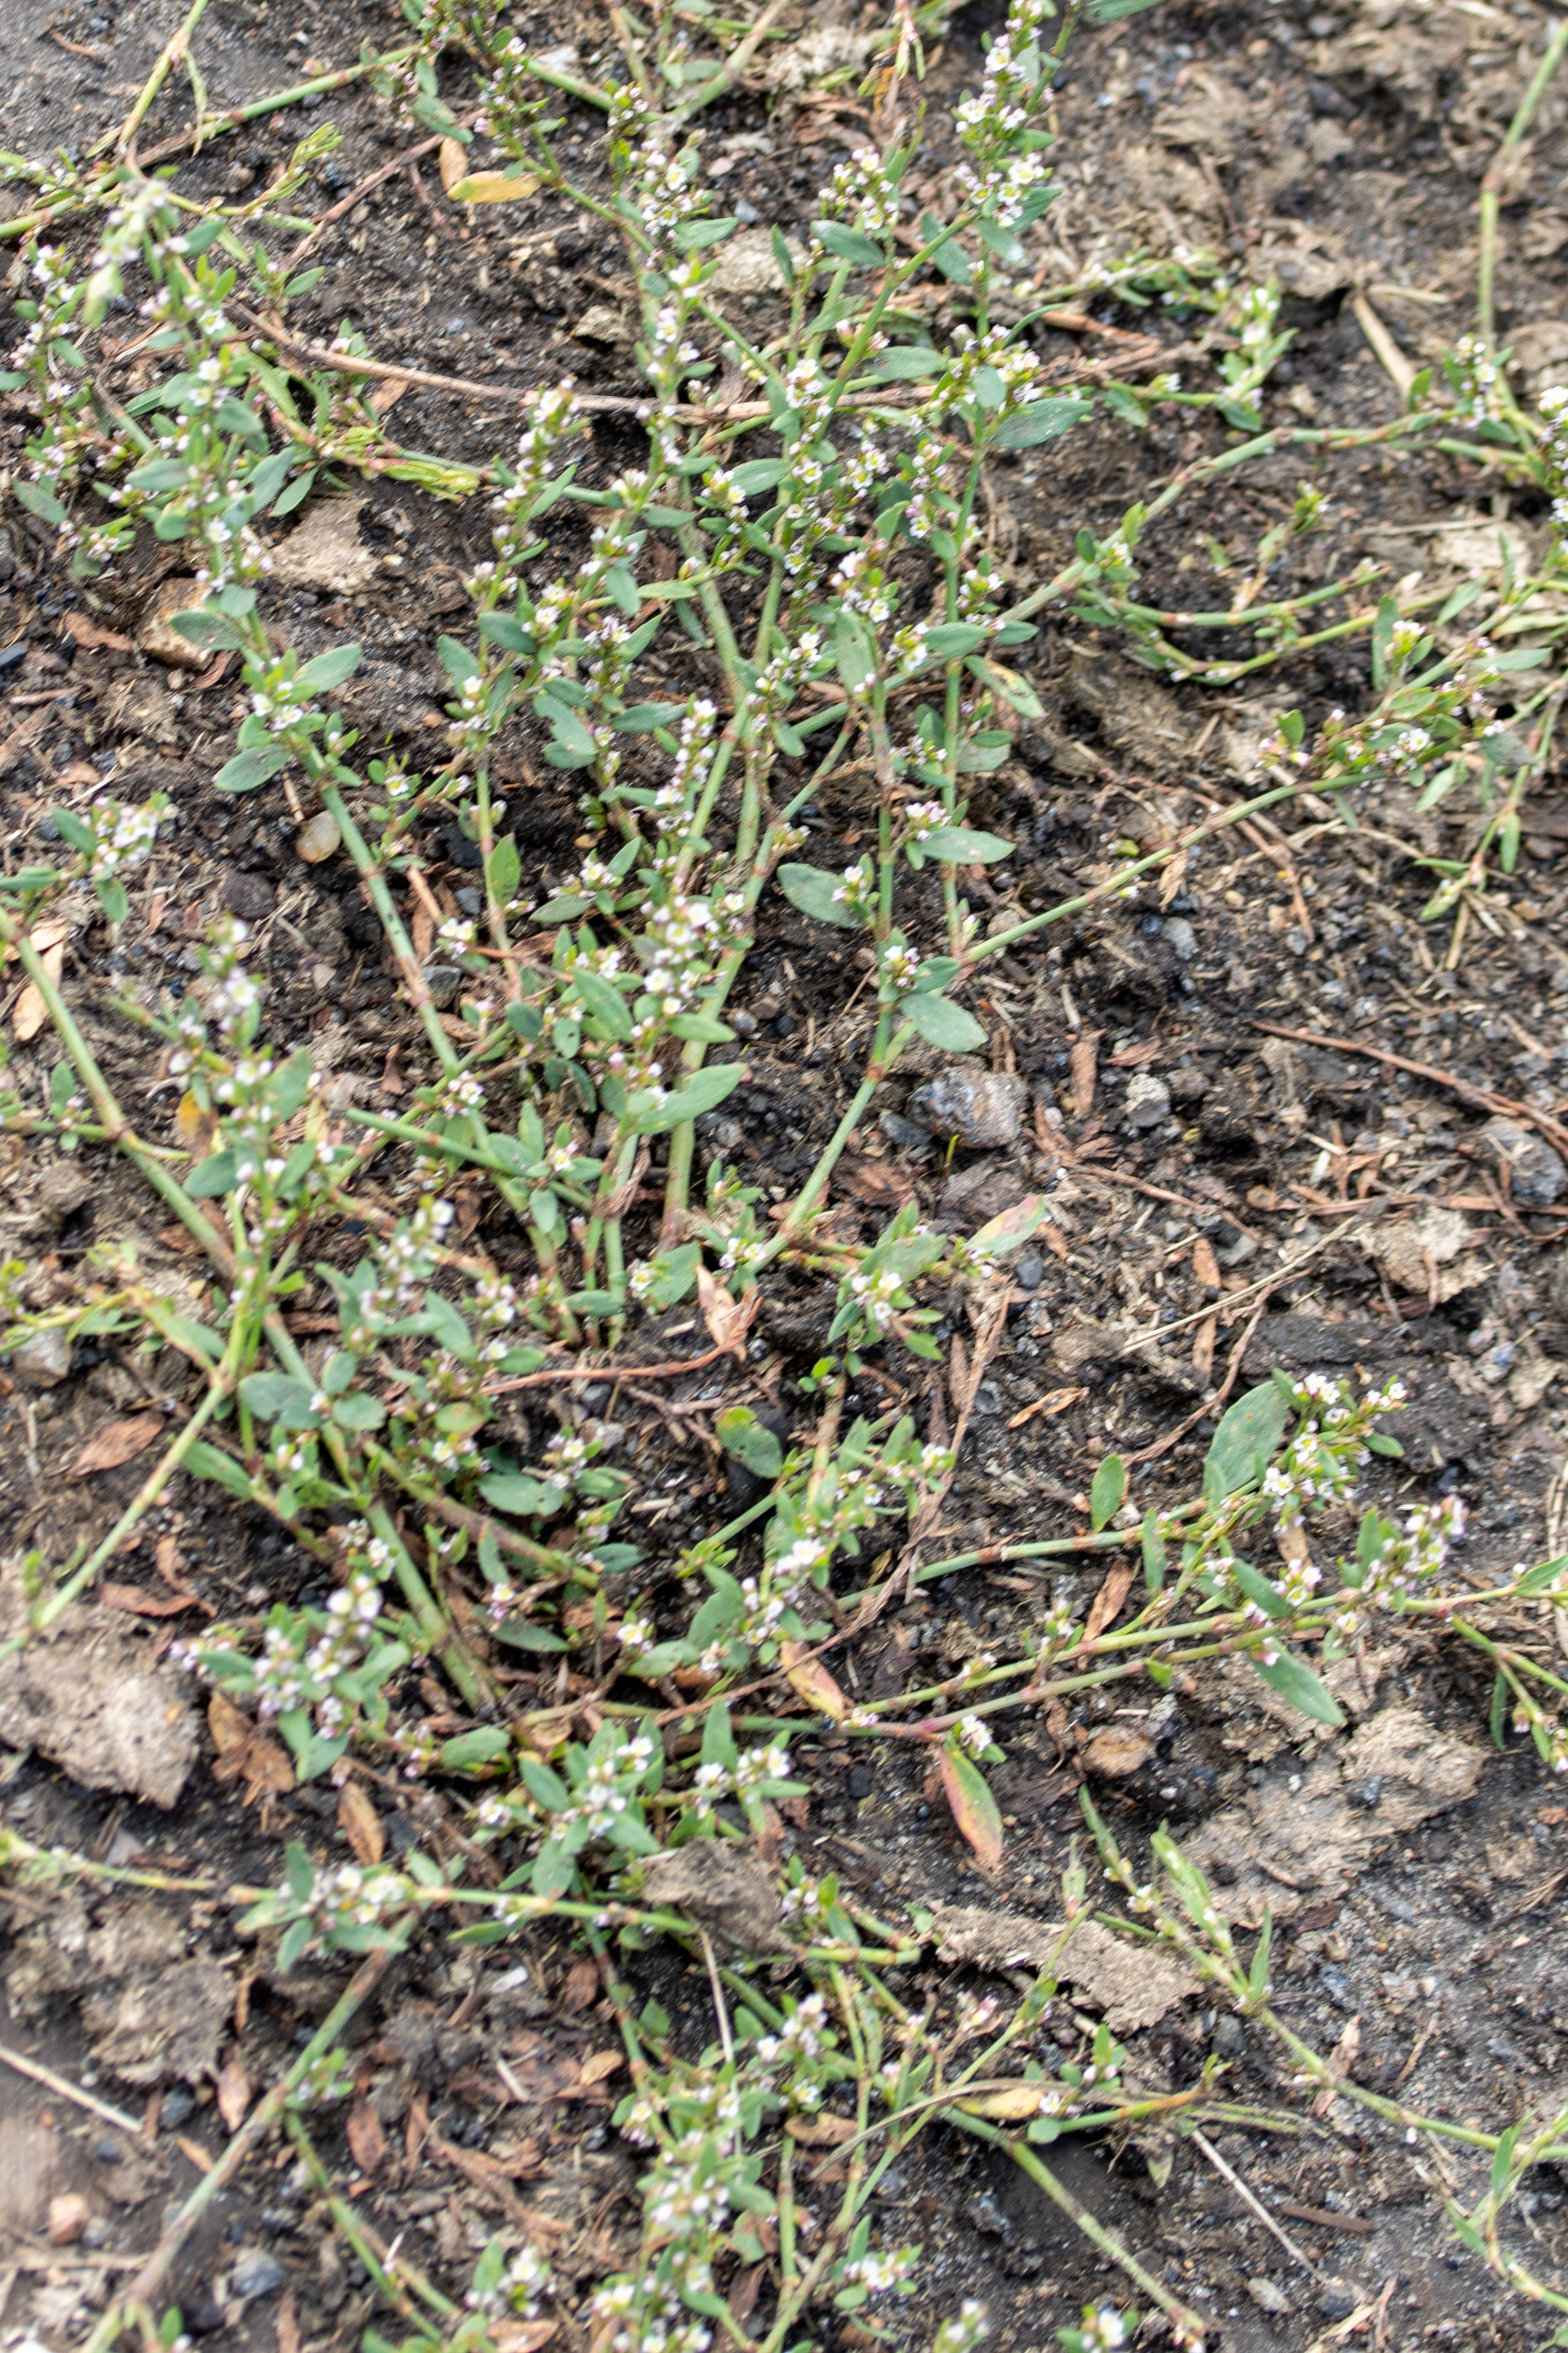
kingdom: Plantae
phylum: Tracheophyta
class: Magnoliopsida
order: Caryophyllales
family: Polygonaceae
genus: Polygonum
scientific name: Polygonum arenastrum
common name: Liggende vej-pileurt
